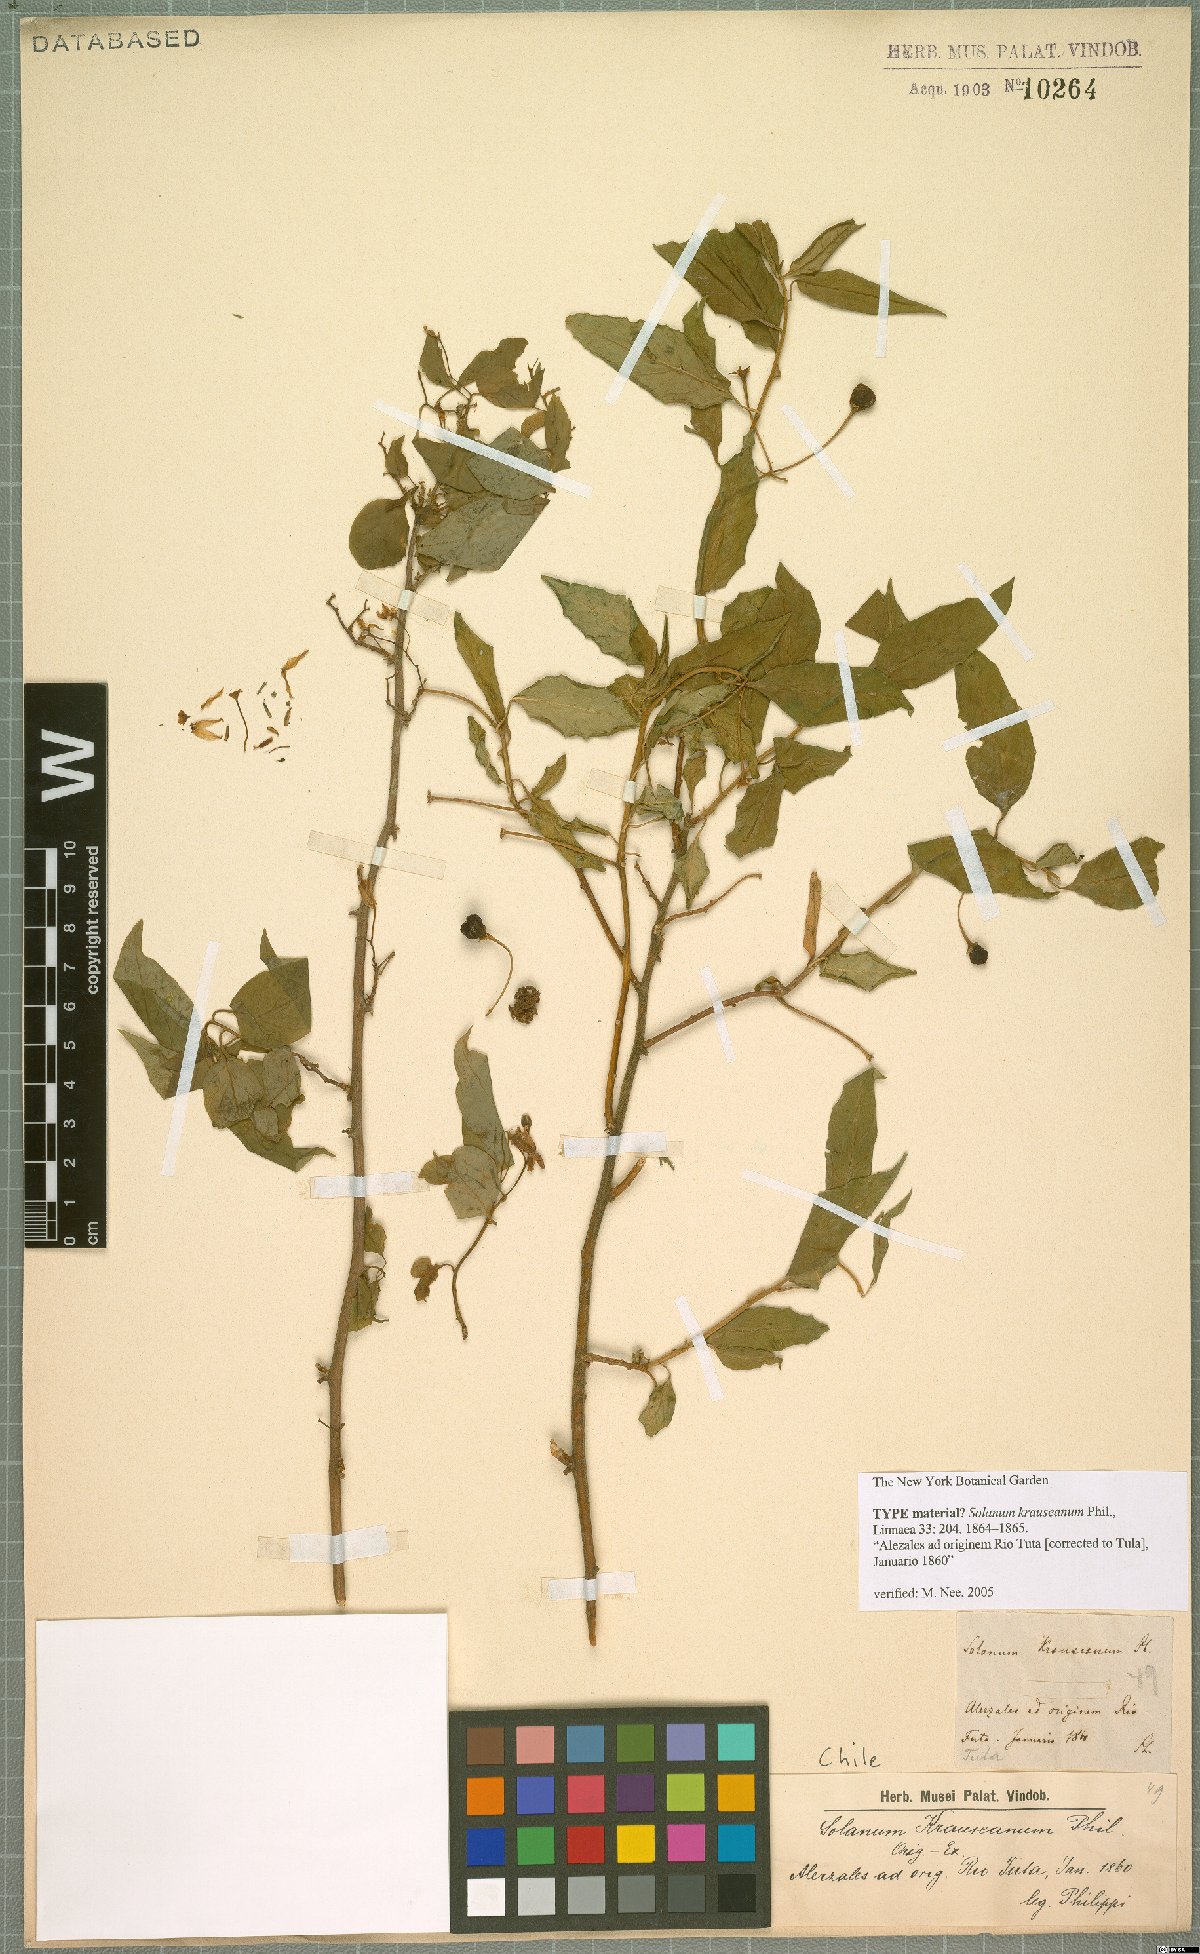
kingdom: Plantae
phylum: Tracheophyta
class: Magnoliopsida
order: Solanales
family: Solanaceae
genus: Solanum
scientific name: Solanum valdiviense
